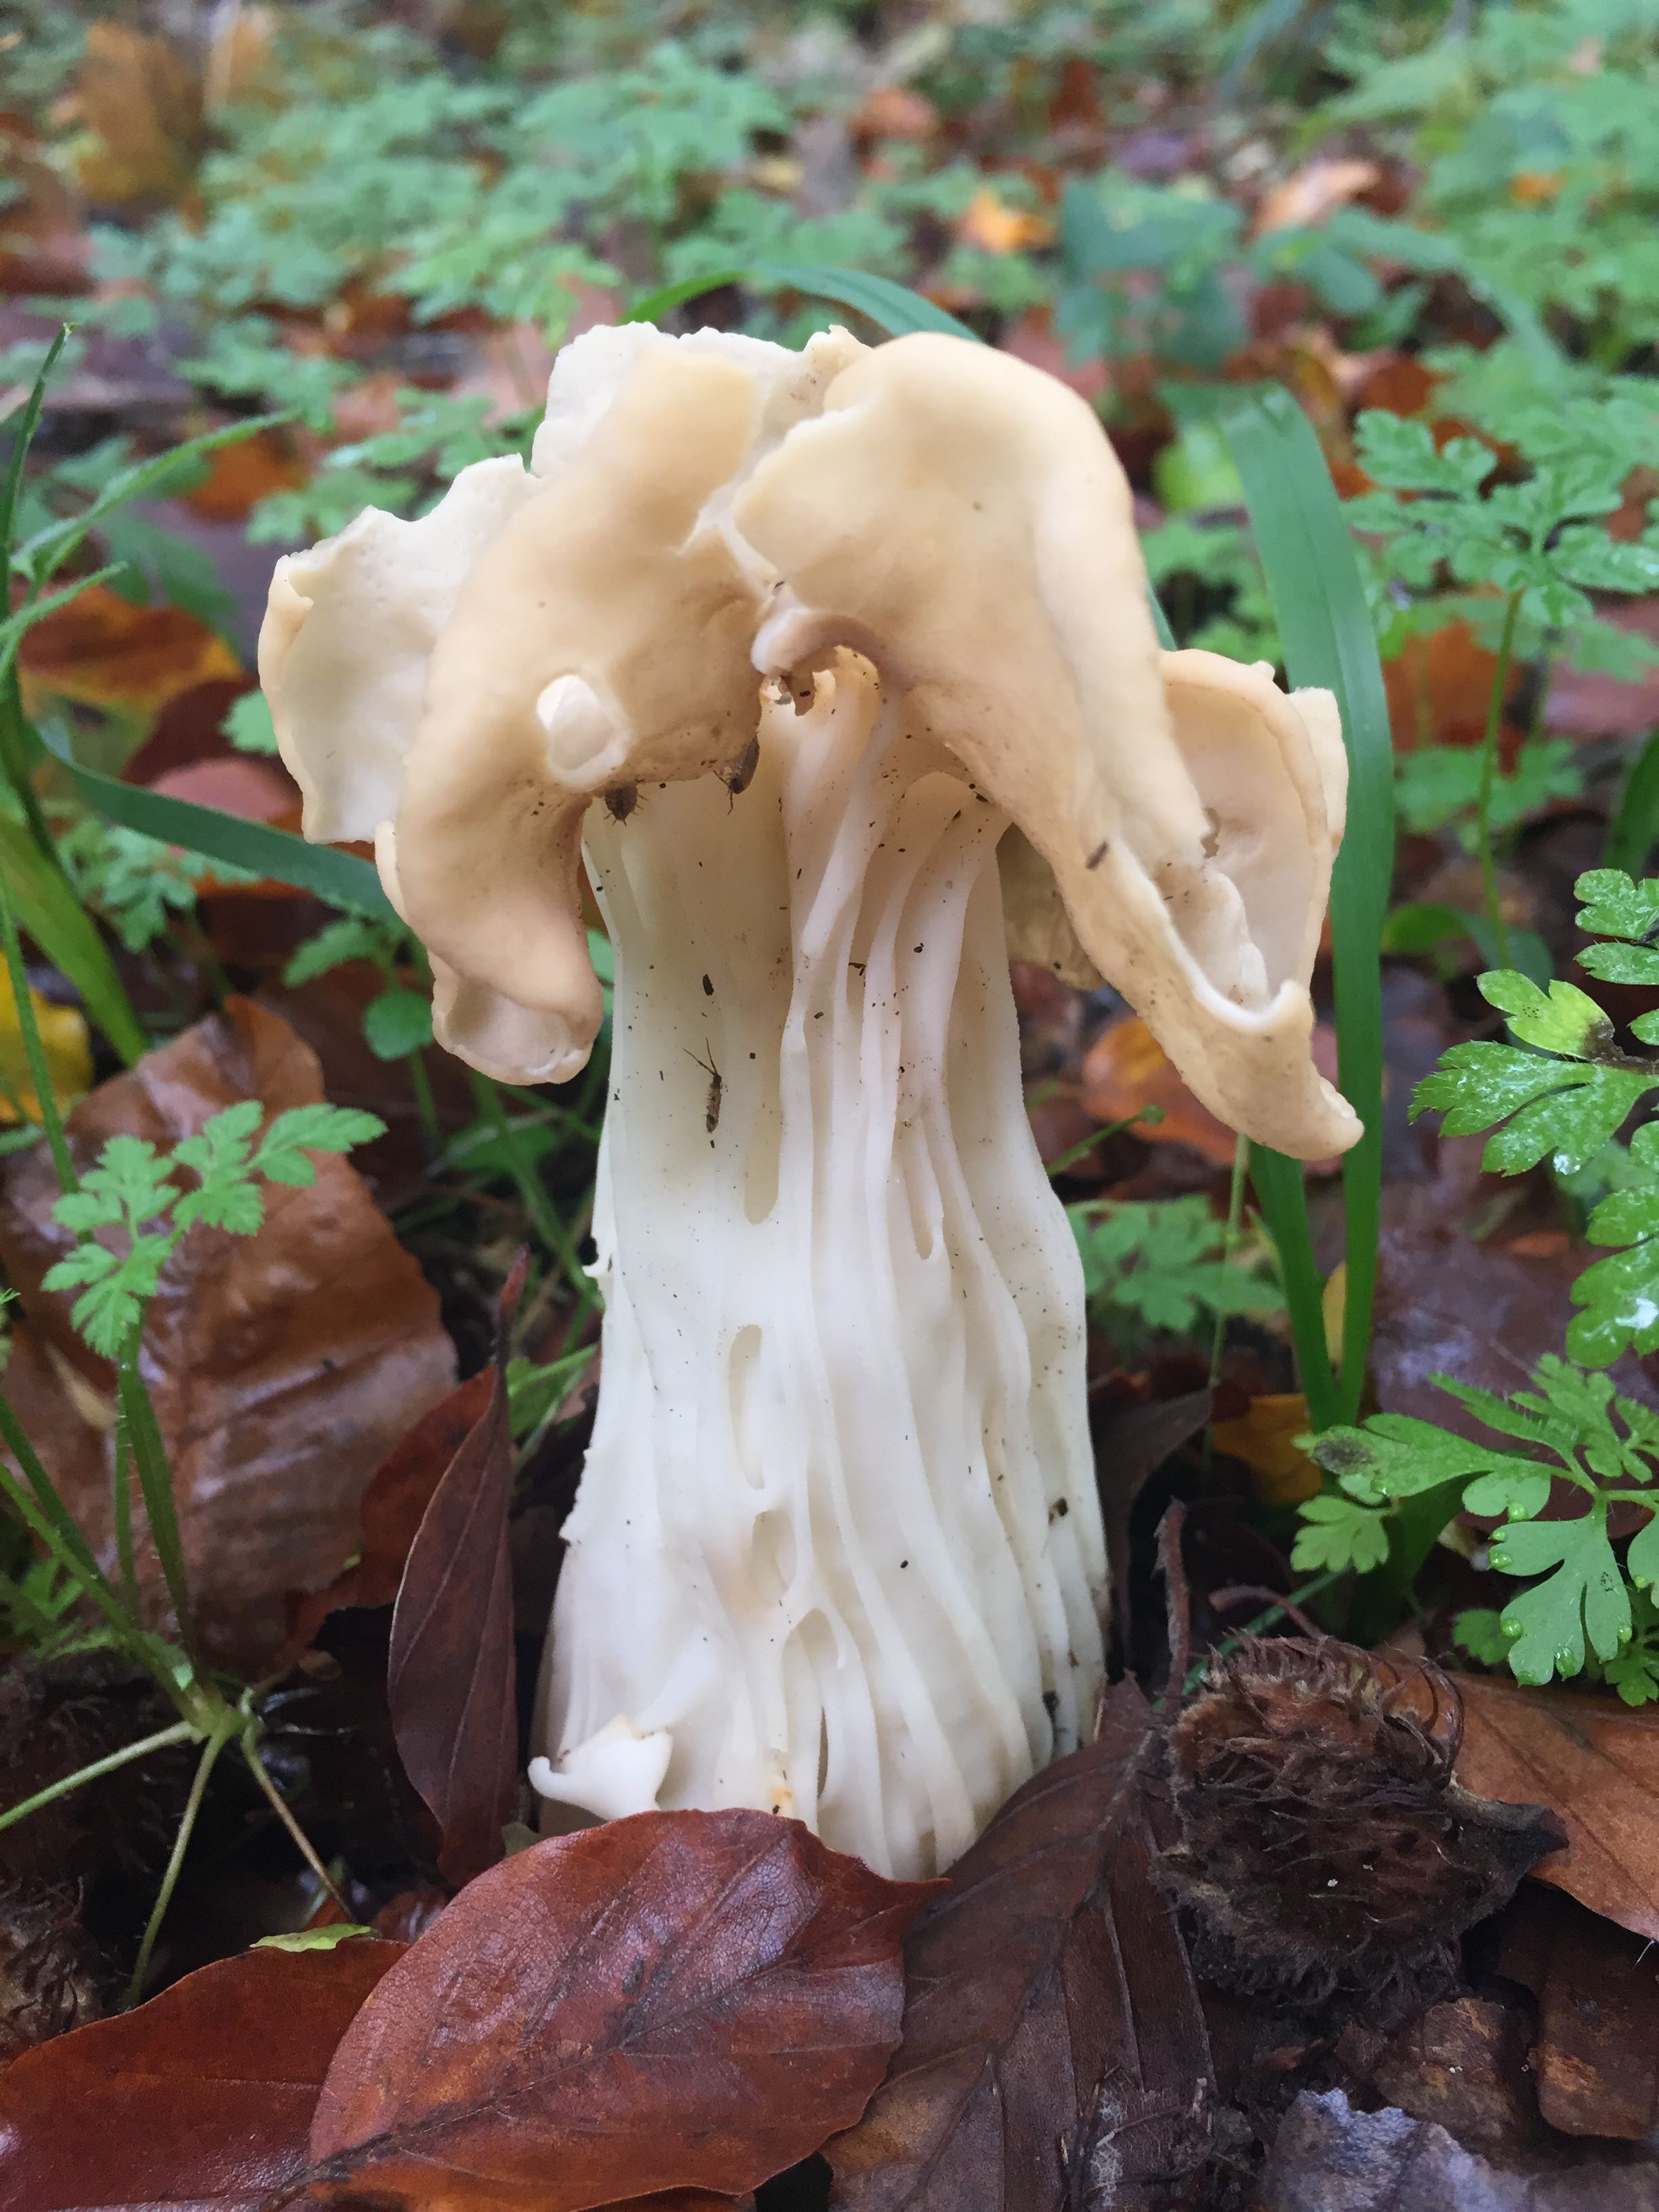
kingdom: Fungi
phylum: Ascomycota
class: Pezizomycetes
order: Pezizales
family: Helvellaceae
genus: Helvella
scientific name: Helvella crispa
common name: kruset foldhat
